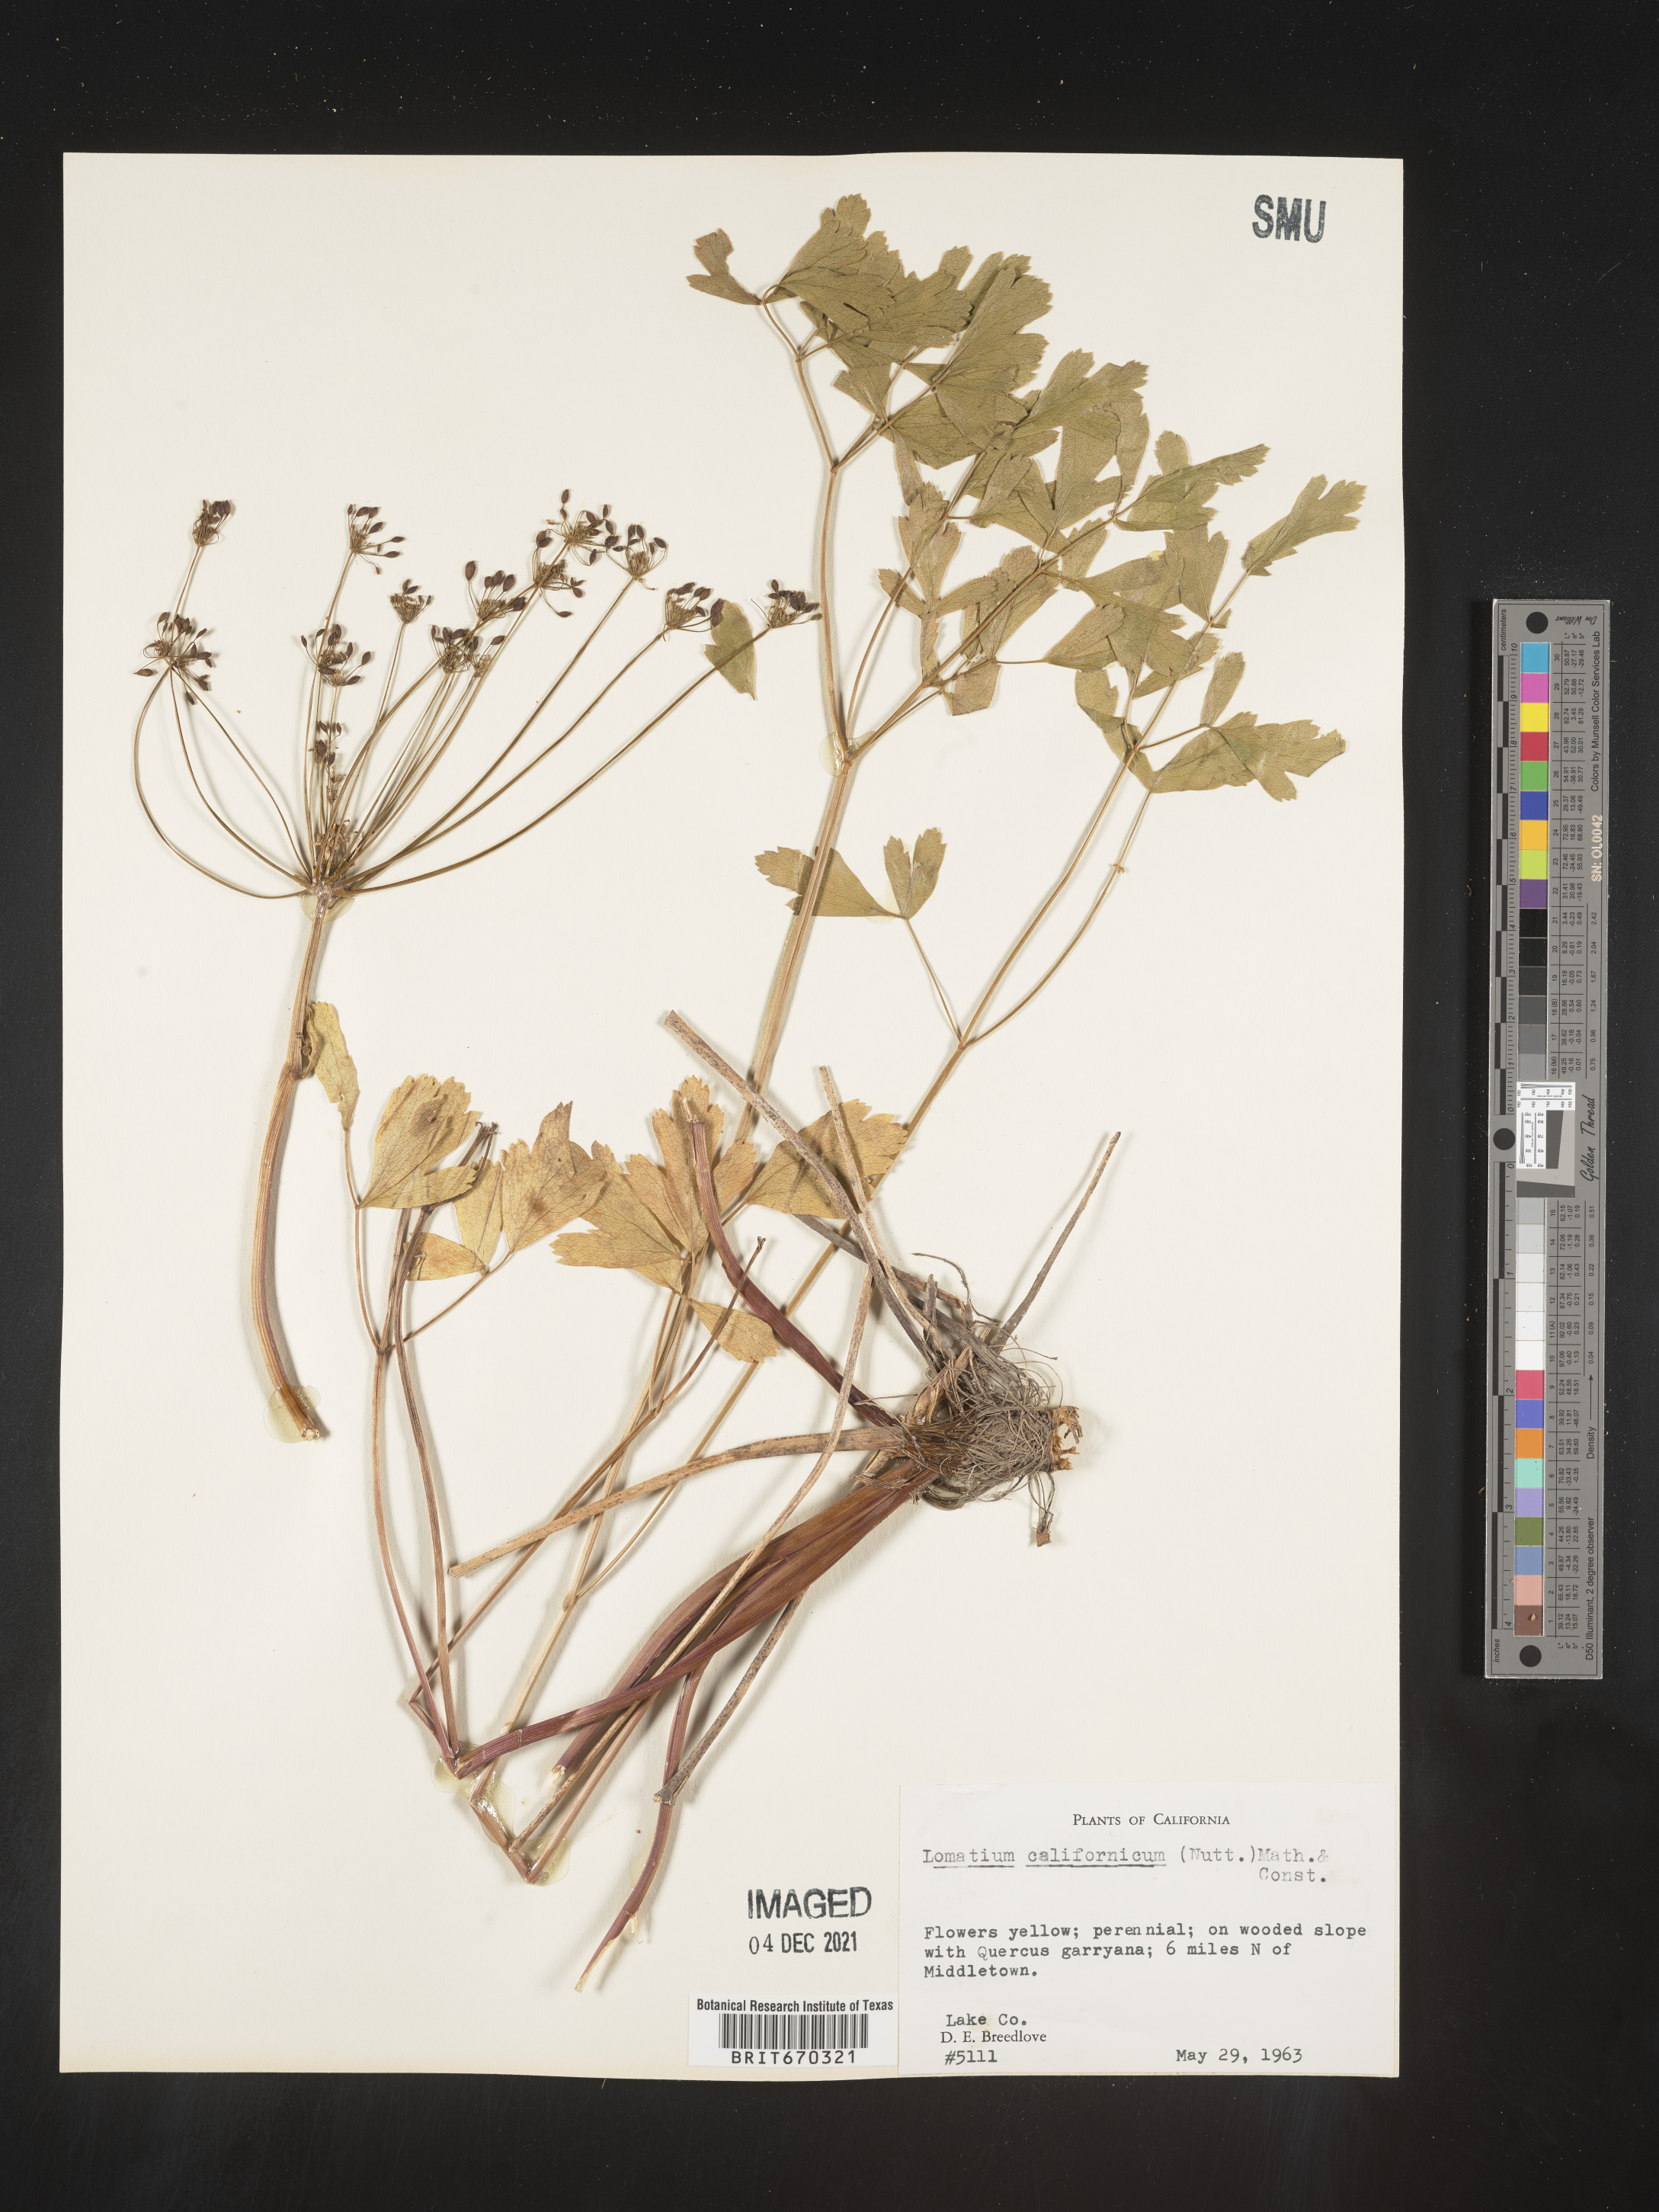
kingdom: Plantae
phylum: Tracheophyta
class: Magnoliopsida
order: Apiales
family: Apiaceae
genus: Lomatium
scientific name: Lomatium californicum
